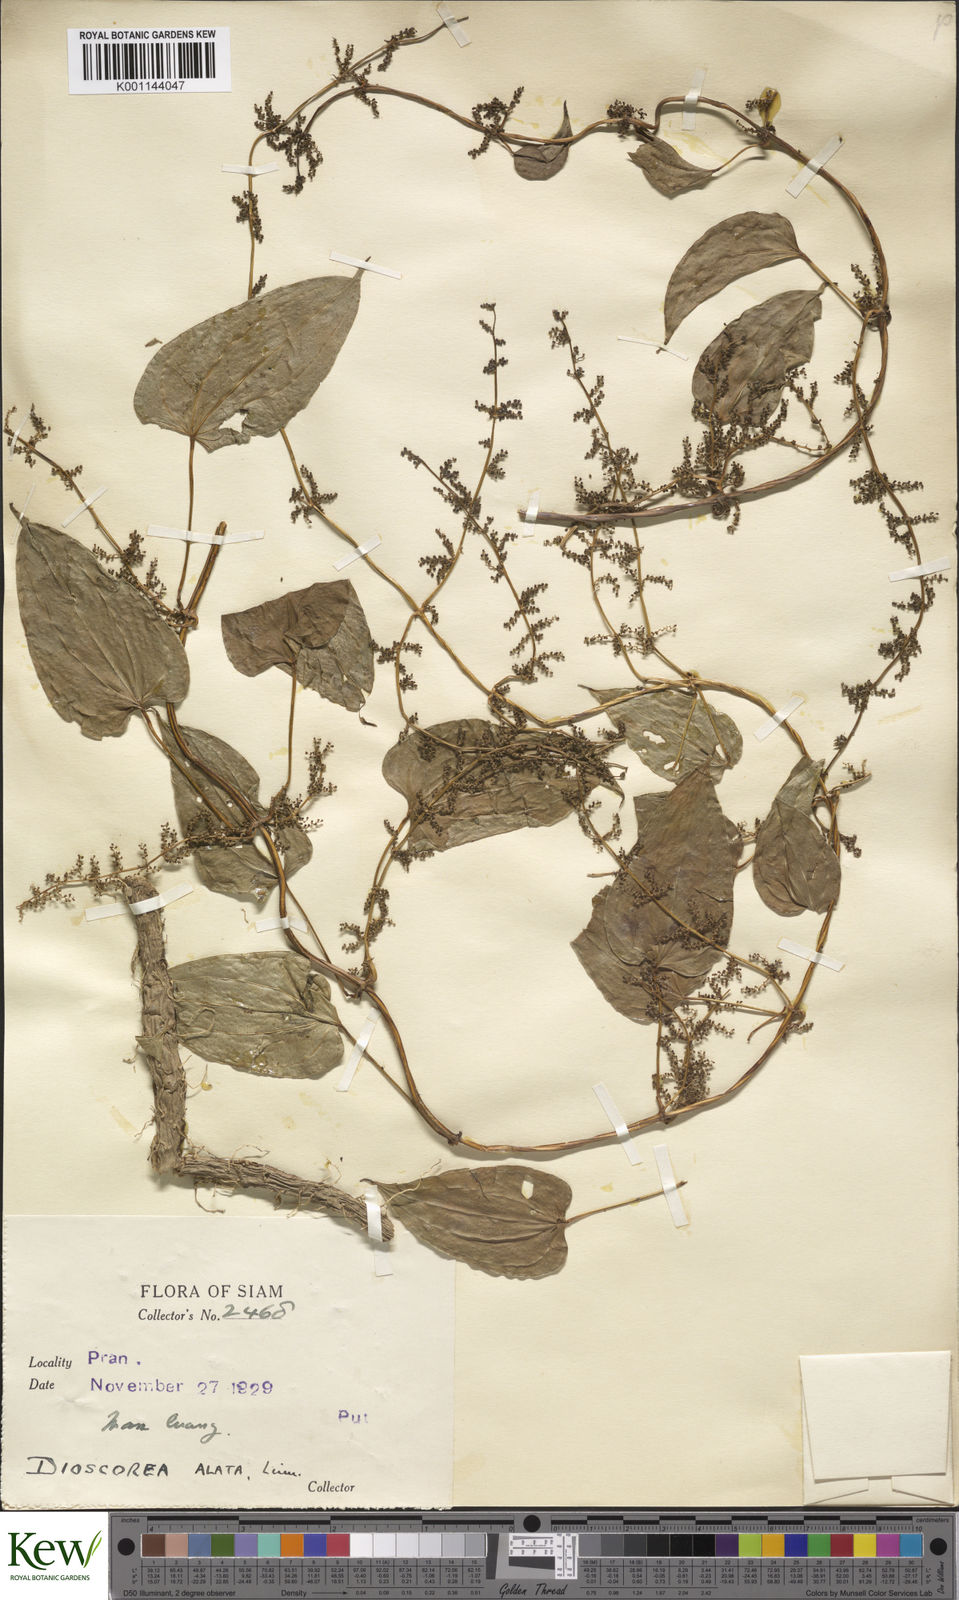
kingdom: Plantae
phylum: Tracheophyta
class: Liliopsida
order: Dioscoreales
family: Dioscoreaceae
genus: Dioscorea
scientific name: Dioscorea alata
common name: Water yam
